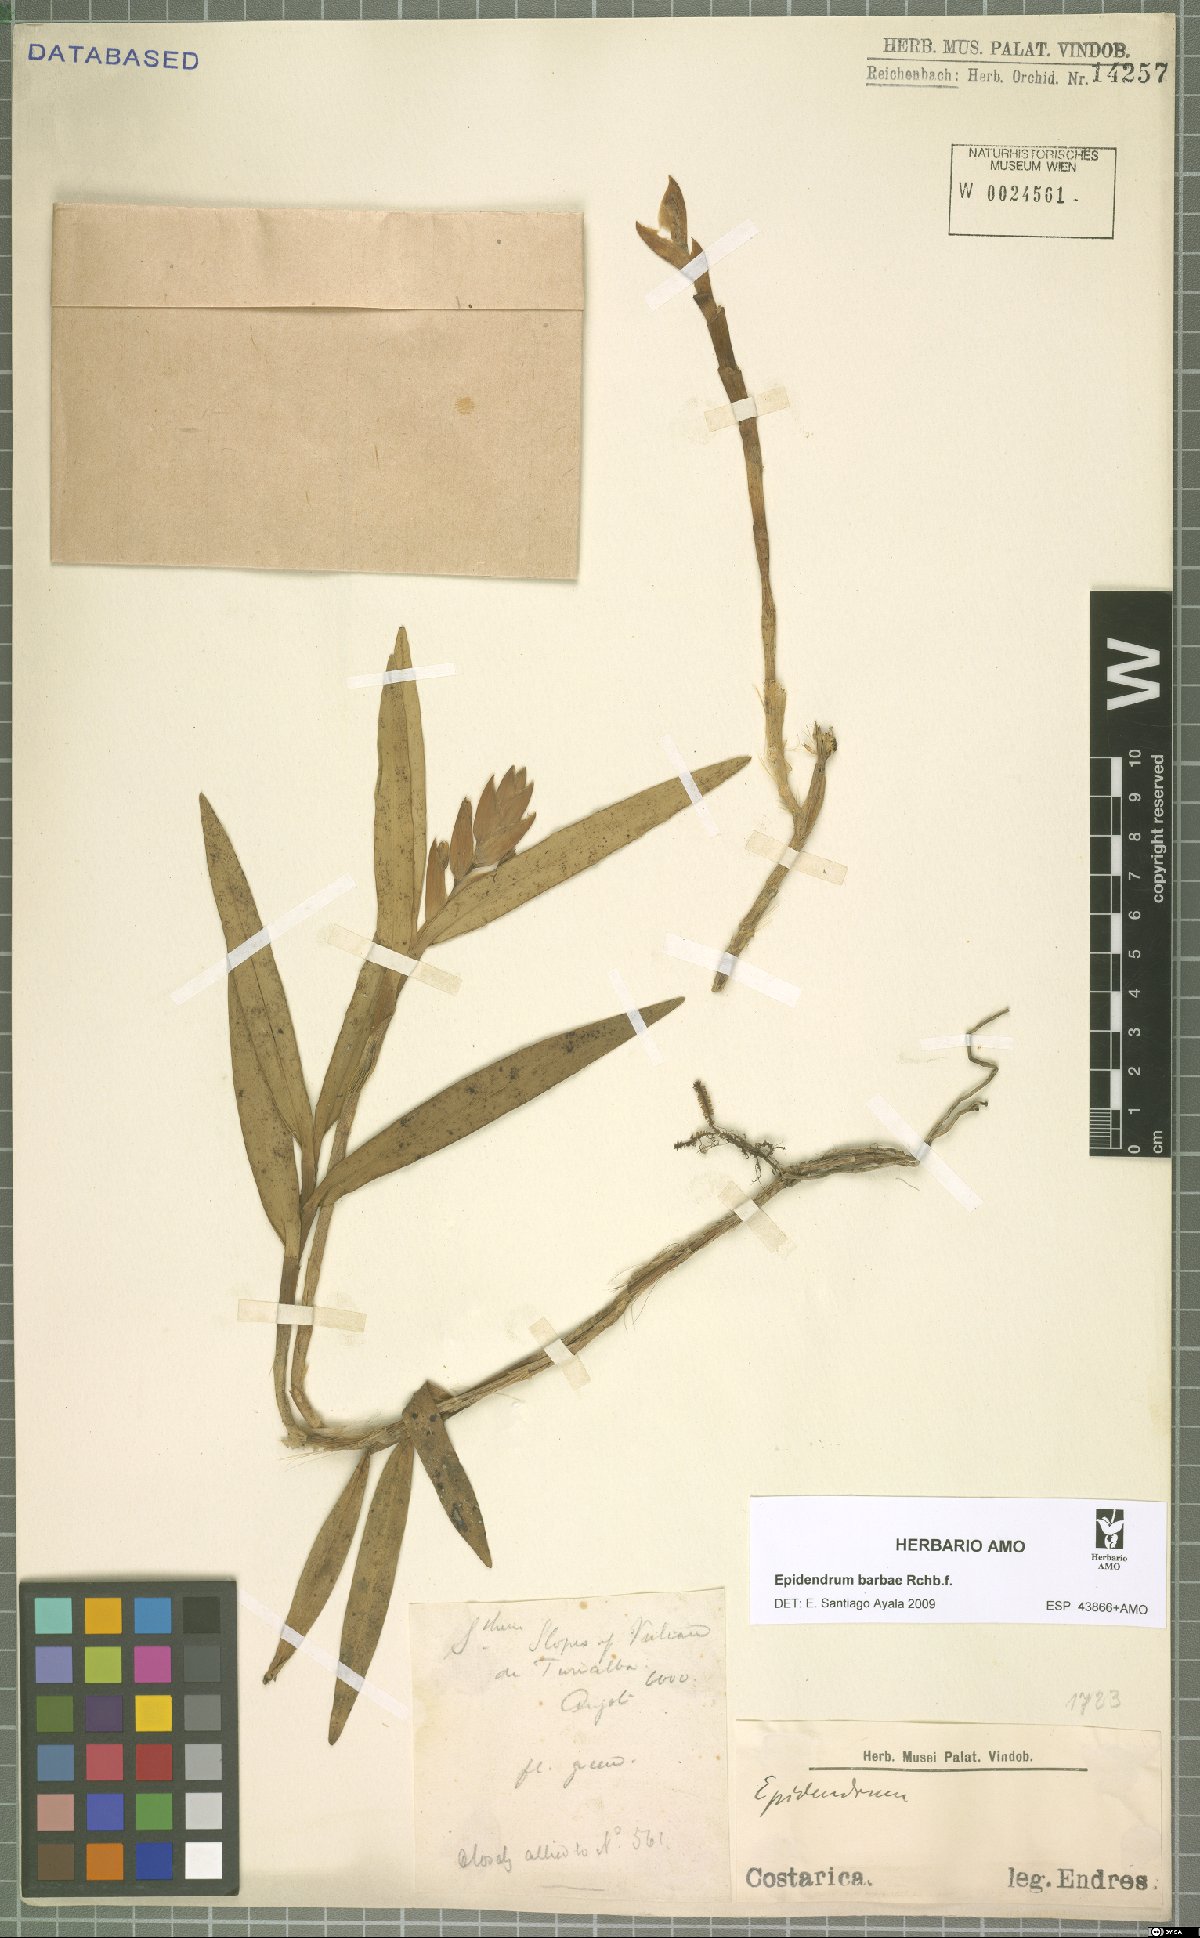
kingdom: Plantae
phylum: Tracheophyta
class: Liliopsida
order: Asparagales
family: Orchidaceae
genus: Epidendrum
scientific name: Epidendrum barbae
